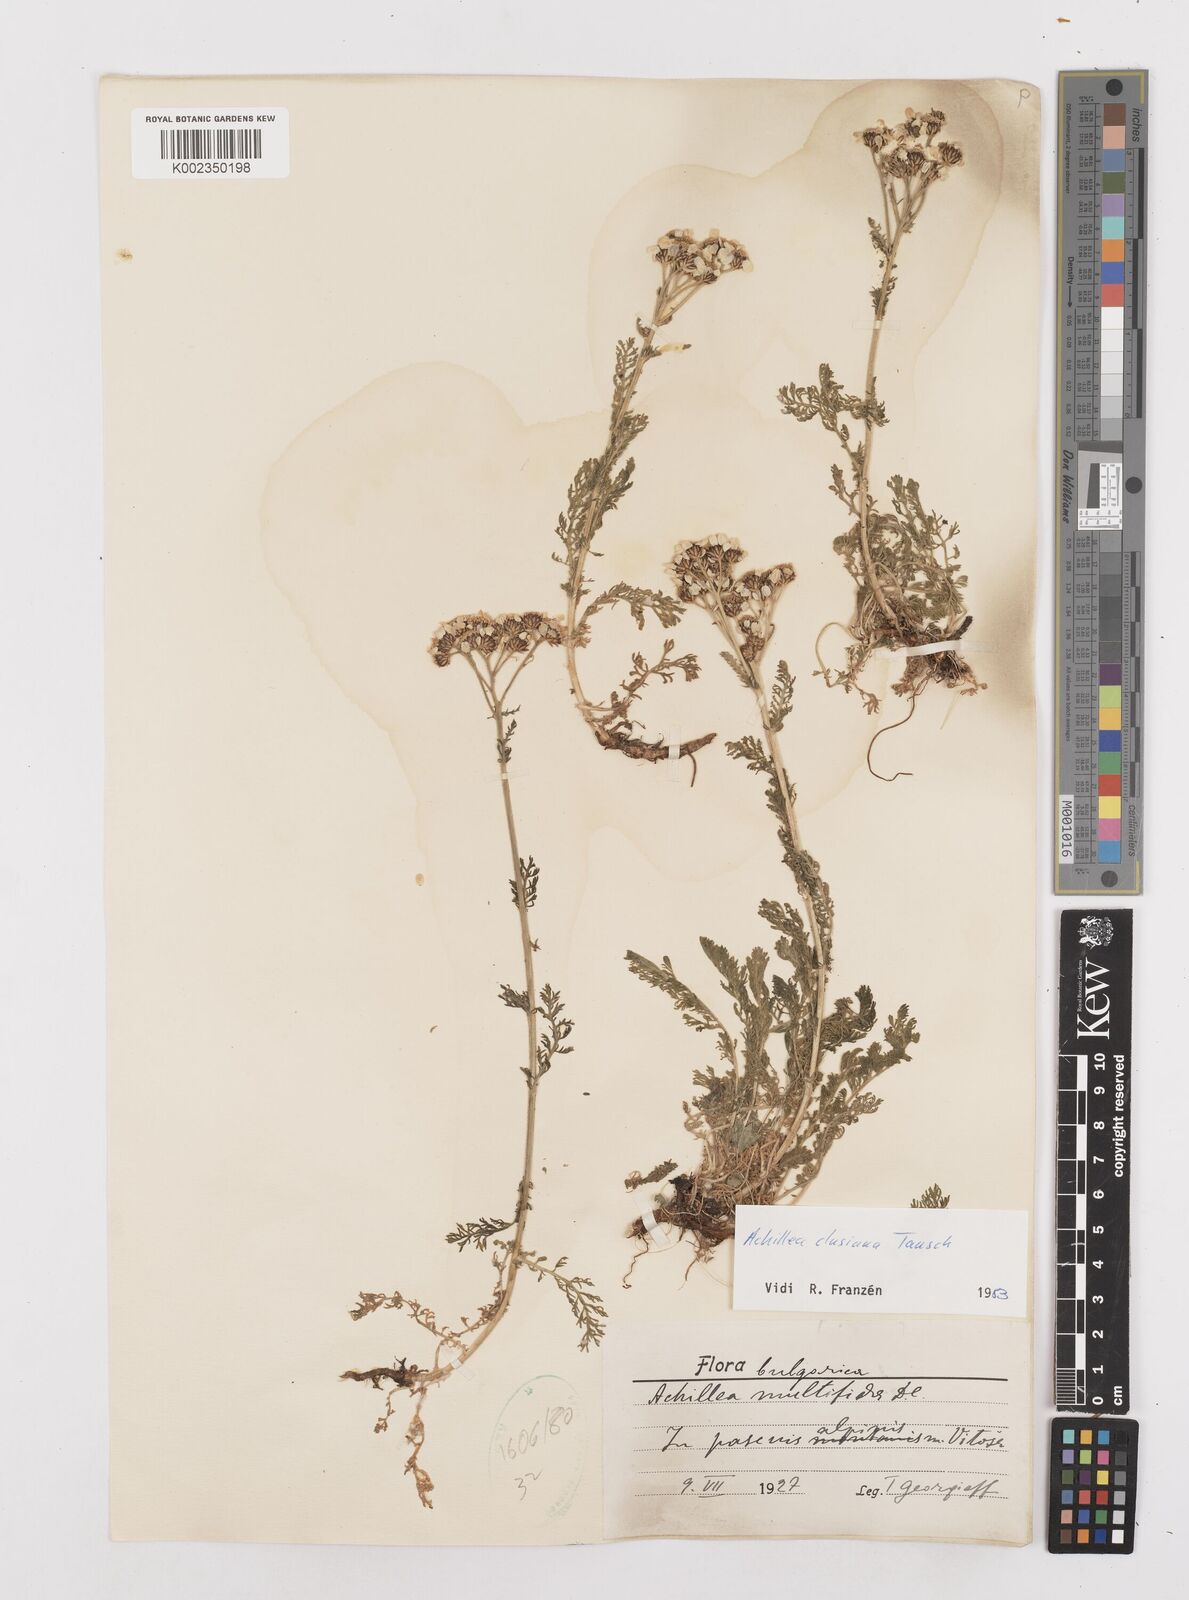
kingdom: Plantae
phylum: Tracheophyta
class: Magnoliopsida
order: Asterales
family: Asteraceae
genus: Achillea
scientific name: Achillea clusiana
